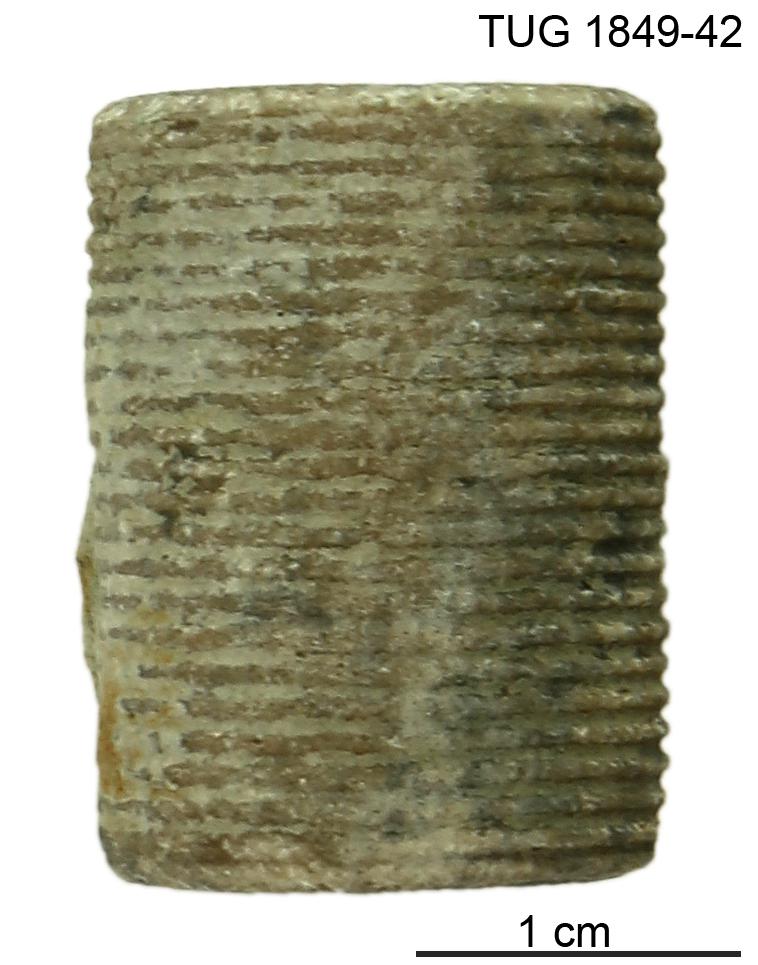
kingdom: Animalia
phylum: Echinodermata
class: Crinoidea
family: Crotalocrinitidae
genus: Crotalocrinites
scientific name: Crotalocrinites
